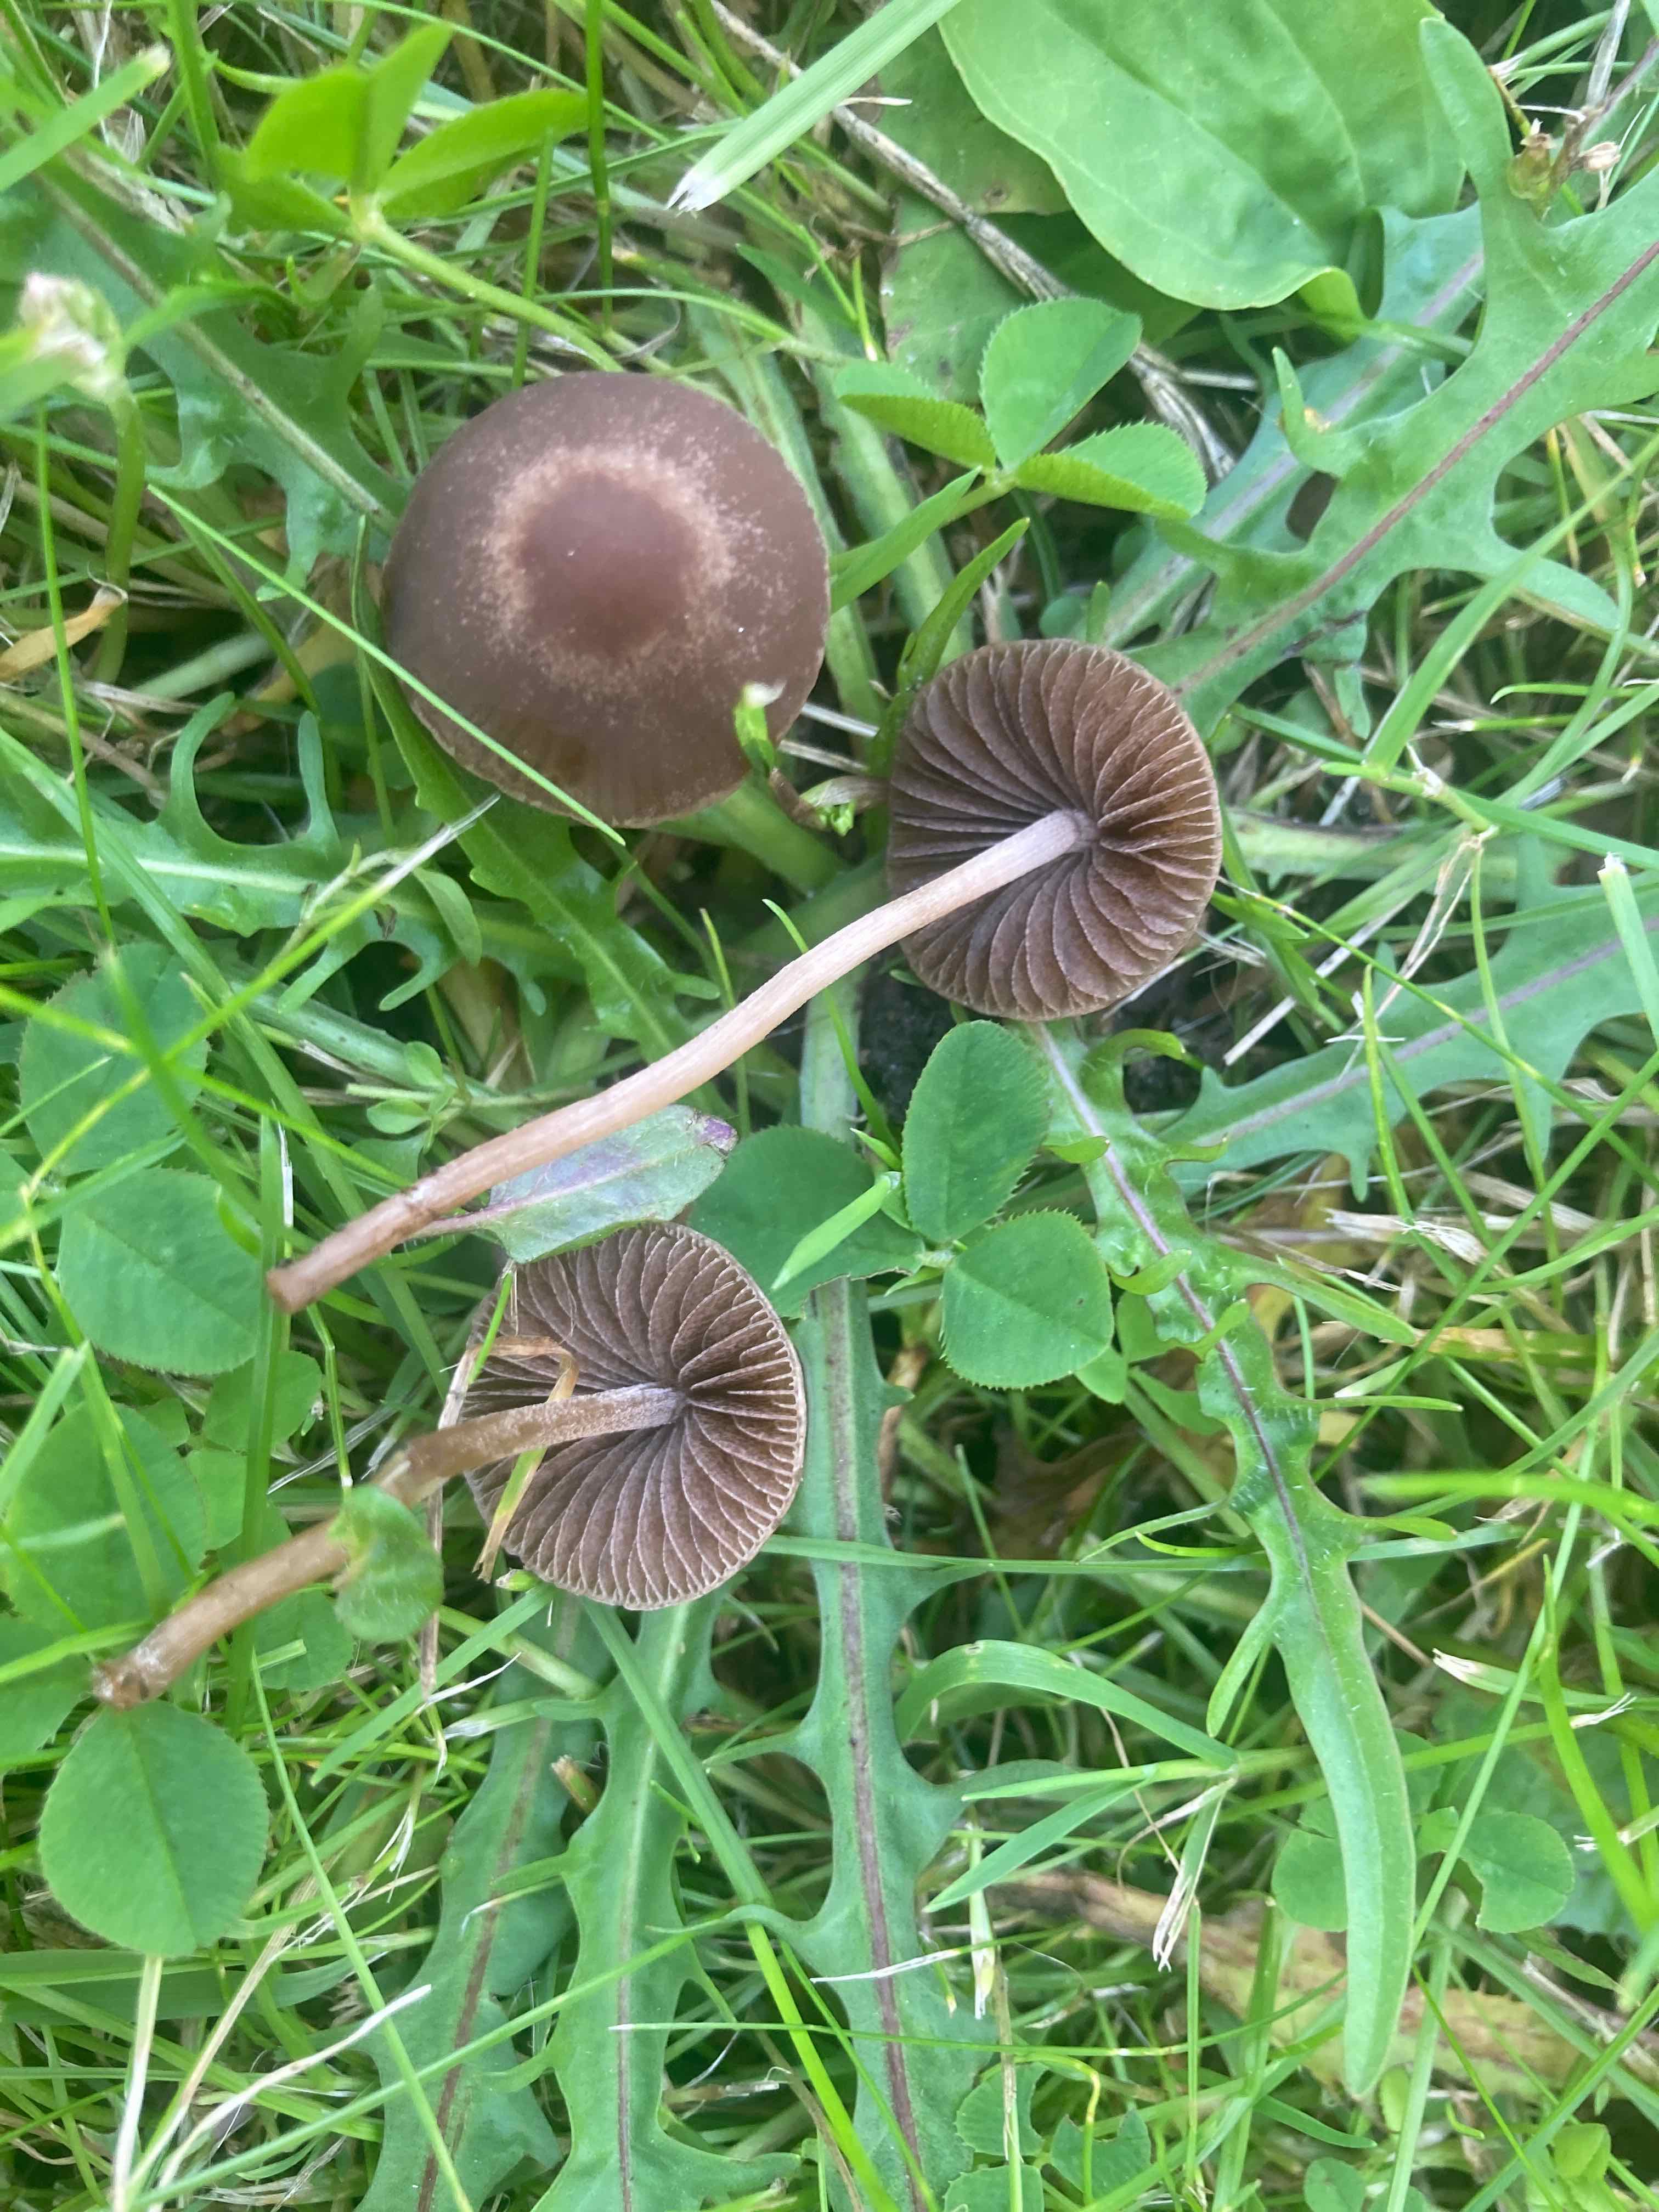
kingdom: Fungi
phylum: Basidiomycota
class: Agaricomycetes
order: Agaricales
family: Bolbitiaceae
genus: Panaeolina
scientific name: Panaeolina foenisecii
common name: høslætsvamp
